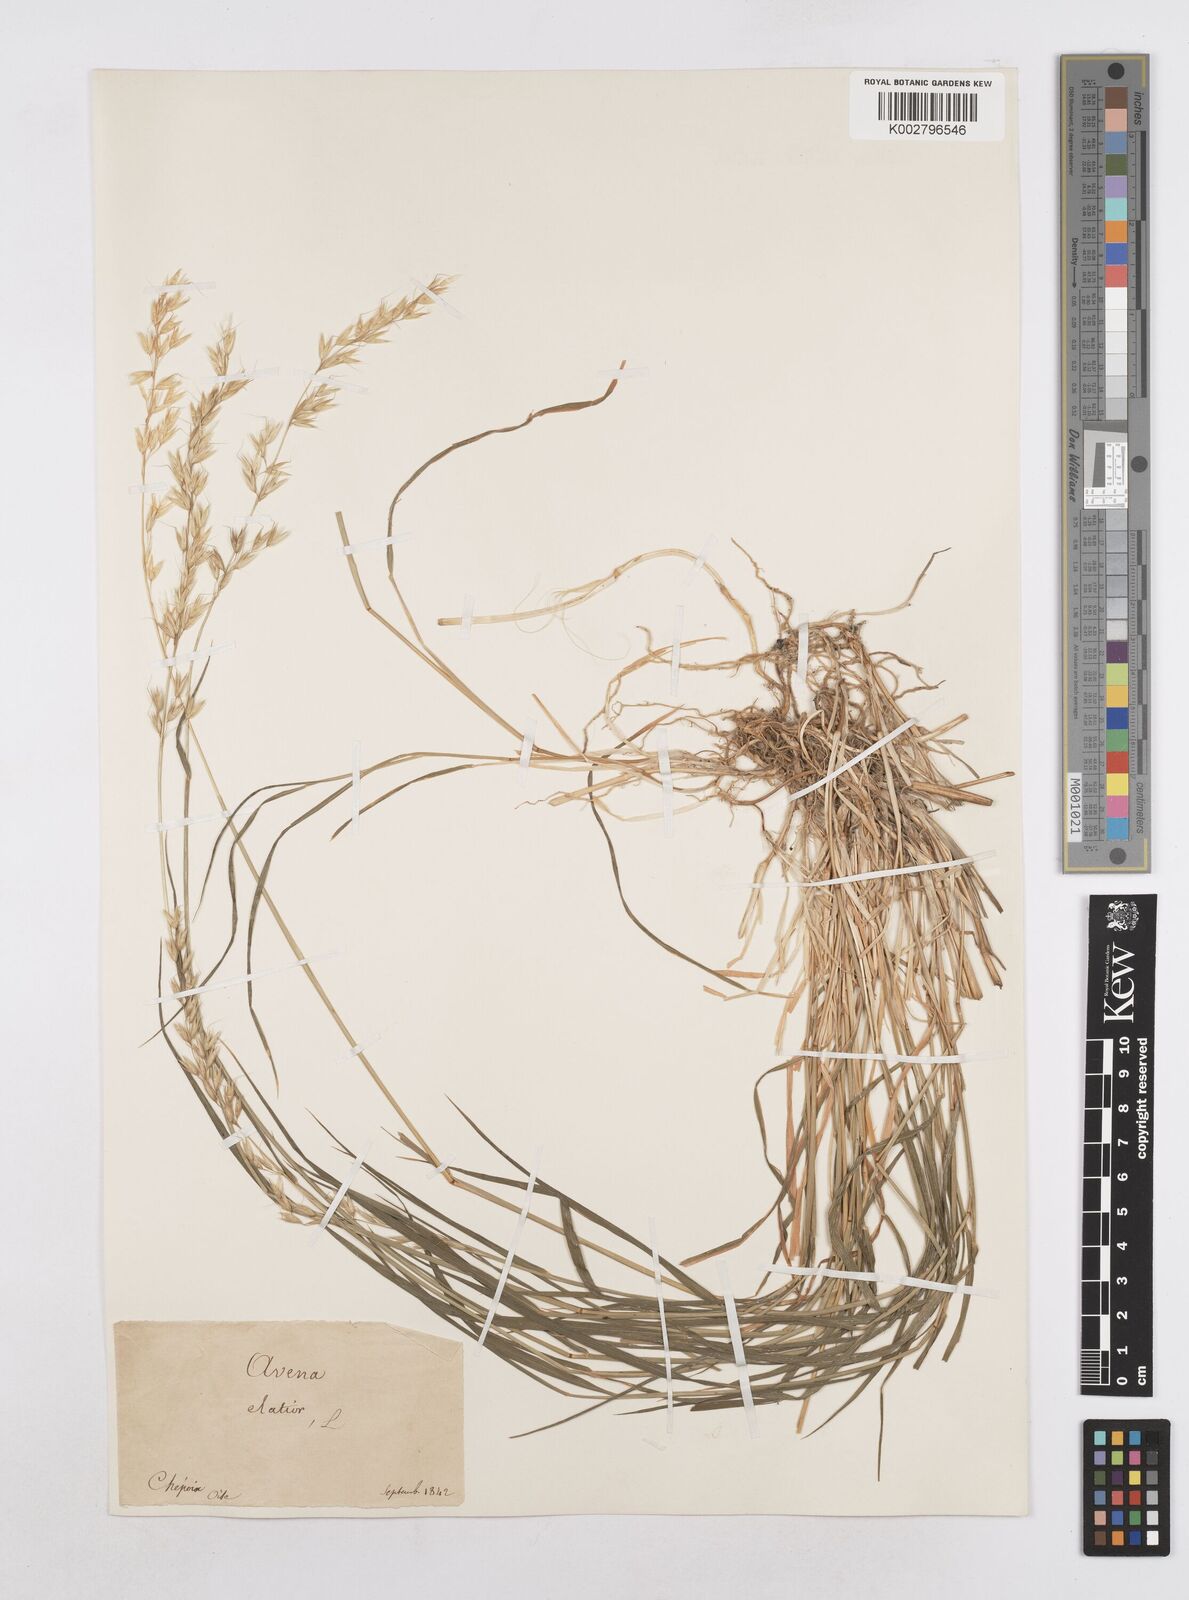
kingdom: Plantae
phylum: Tracheophyta
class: Liliopsida
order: Poales
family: Poaceae
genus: Arrhenatherum
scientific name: Arrhenatherum elatius
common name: Tall oatgrass
